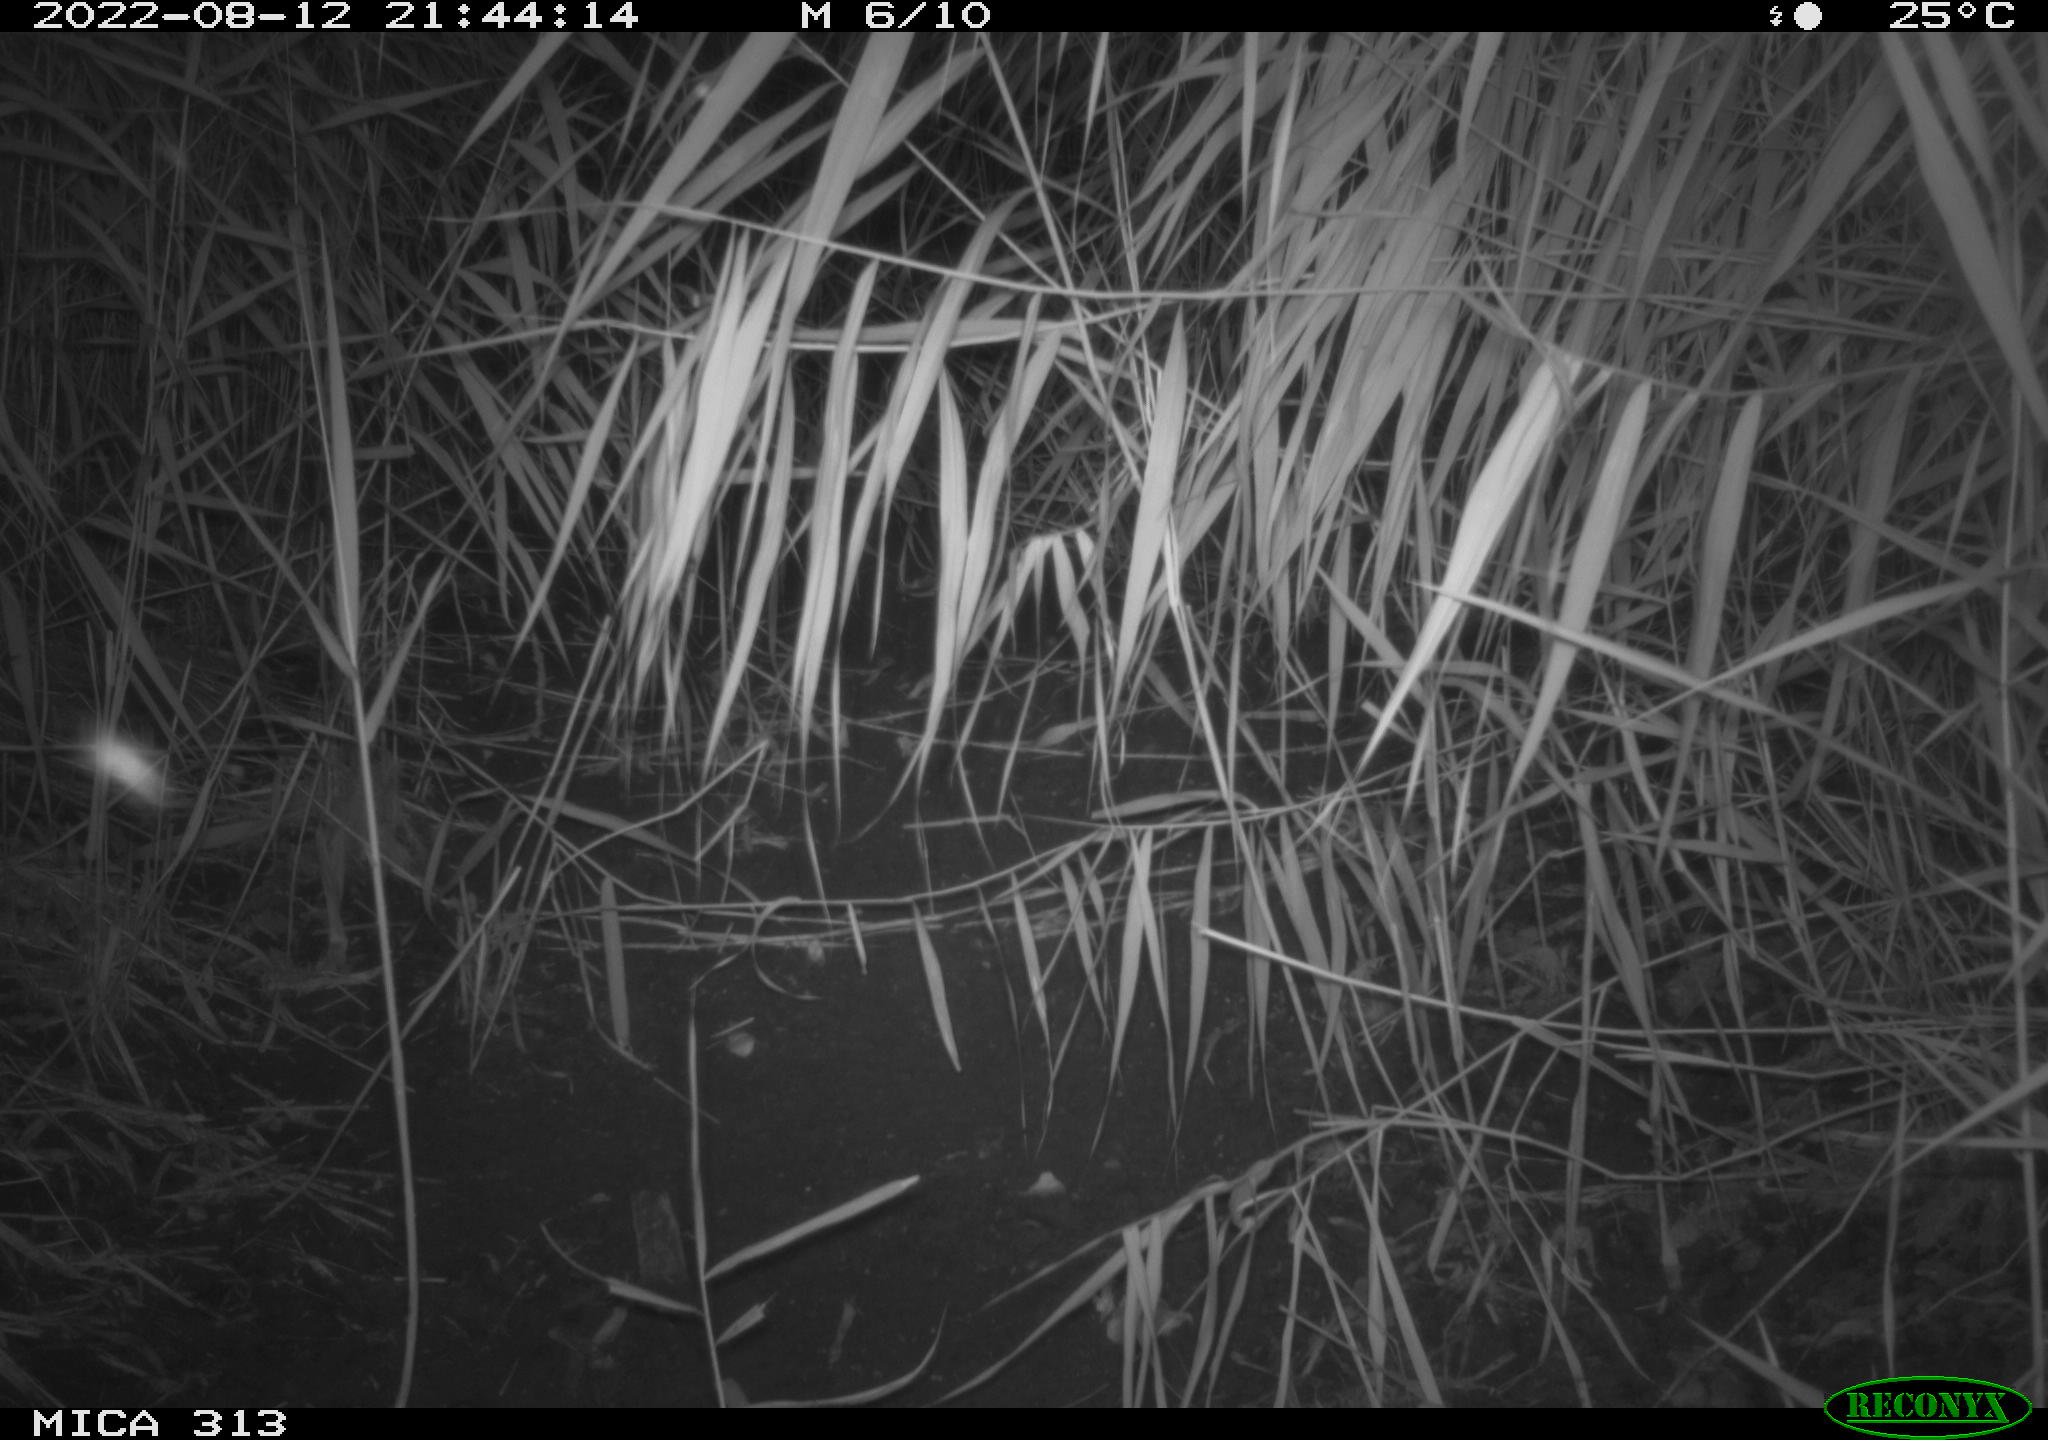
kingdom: Animalia
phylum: Chordata
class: Mammalia
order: Rodentia
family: Muridae
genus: Rattus
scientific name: Rattus norvegicus
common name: Brown rat
